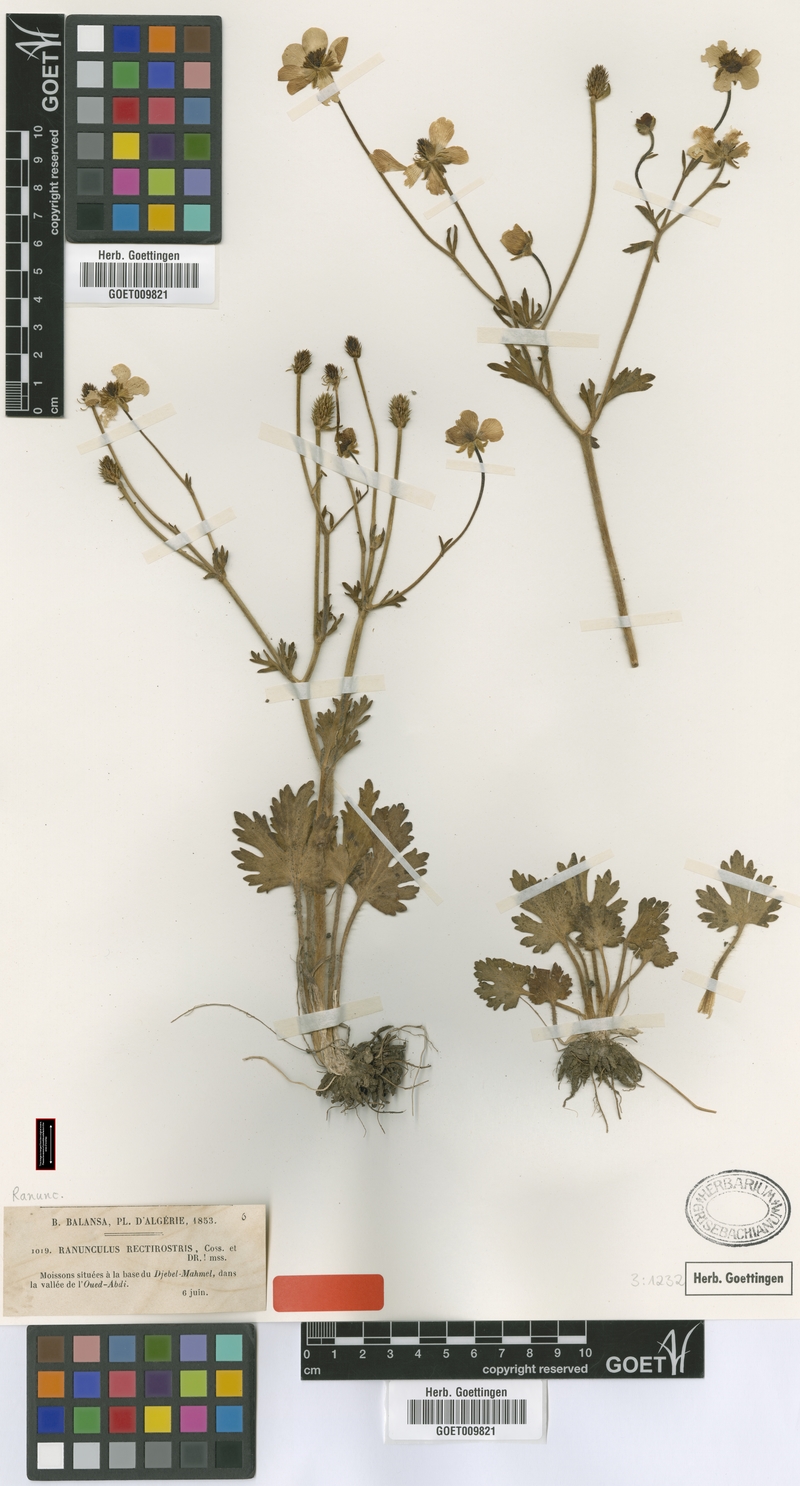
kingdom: Plantae
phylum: Tracheophyta
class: Magnoliopsida
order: Ranunculales
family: Ranunculaceae
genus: Ranunculus
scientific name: Ranunculus rectirostris
